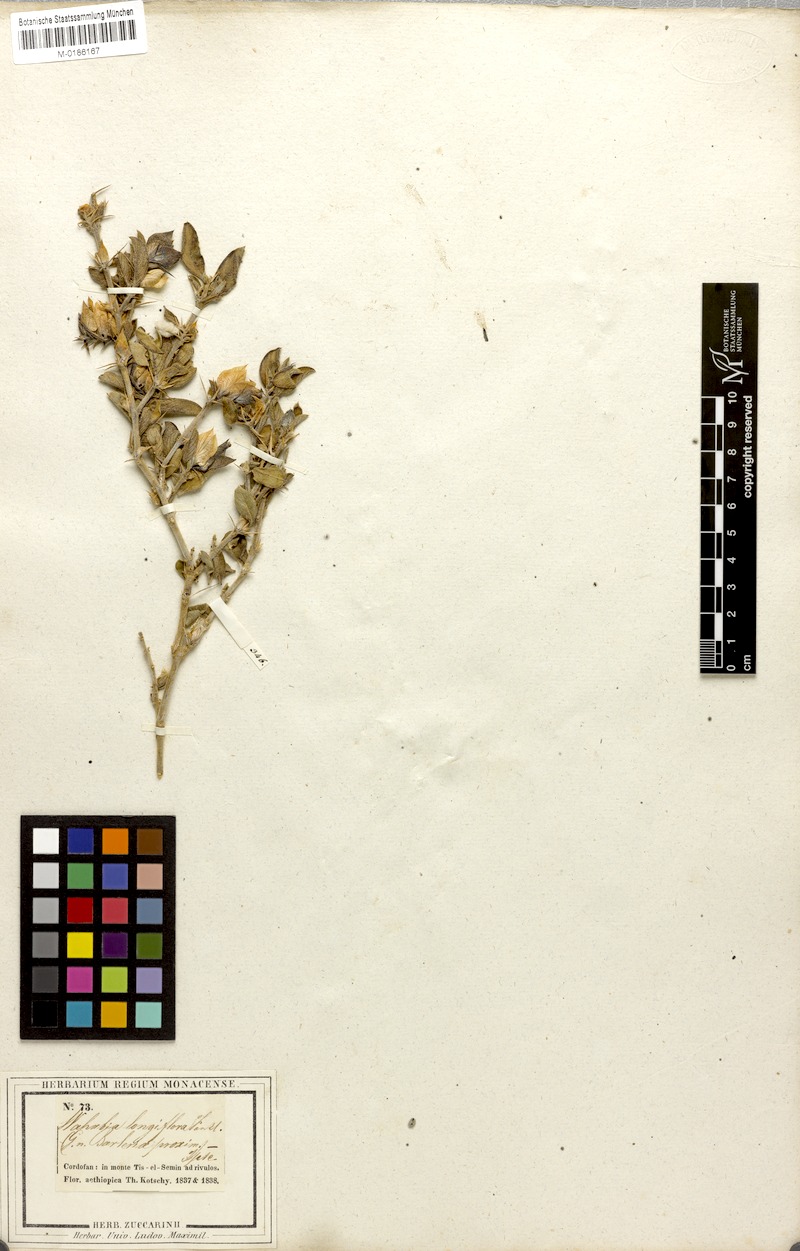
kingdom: Plantae
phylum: Tracheophyta
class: Magnoliopsida
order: Lamiales
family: Acanthaceae
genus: Barleria
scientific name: Barleria acanthoides
